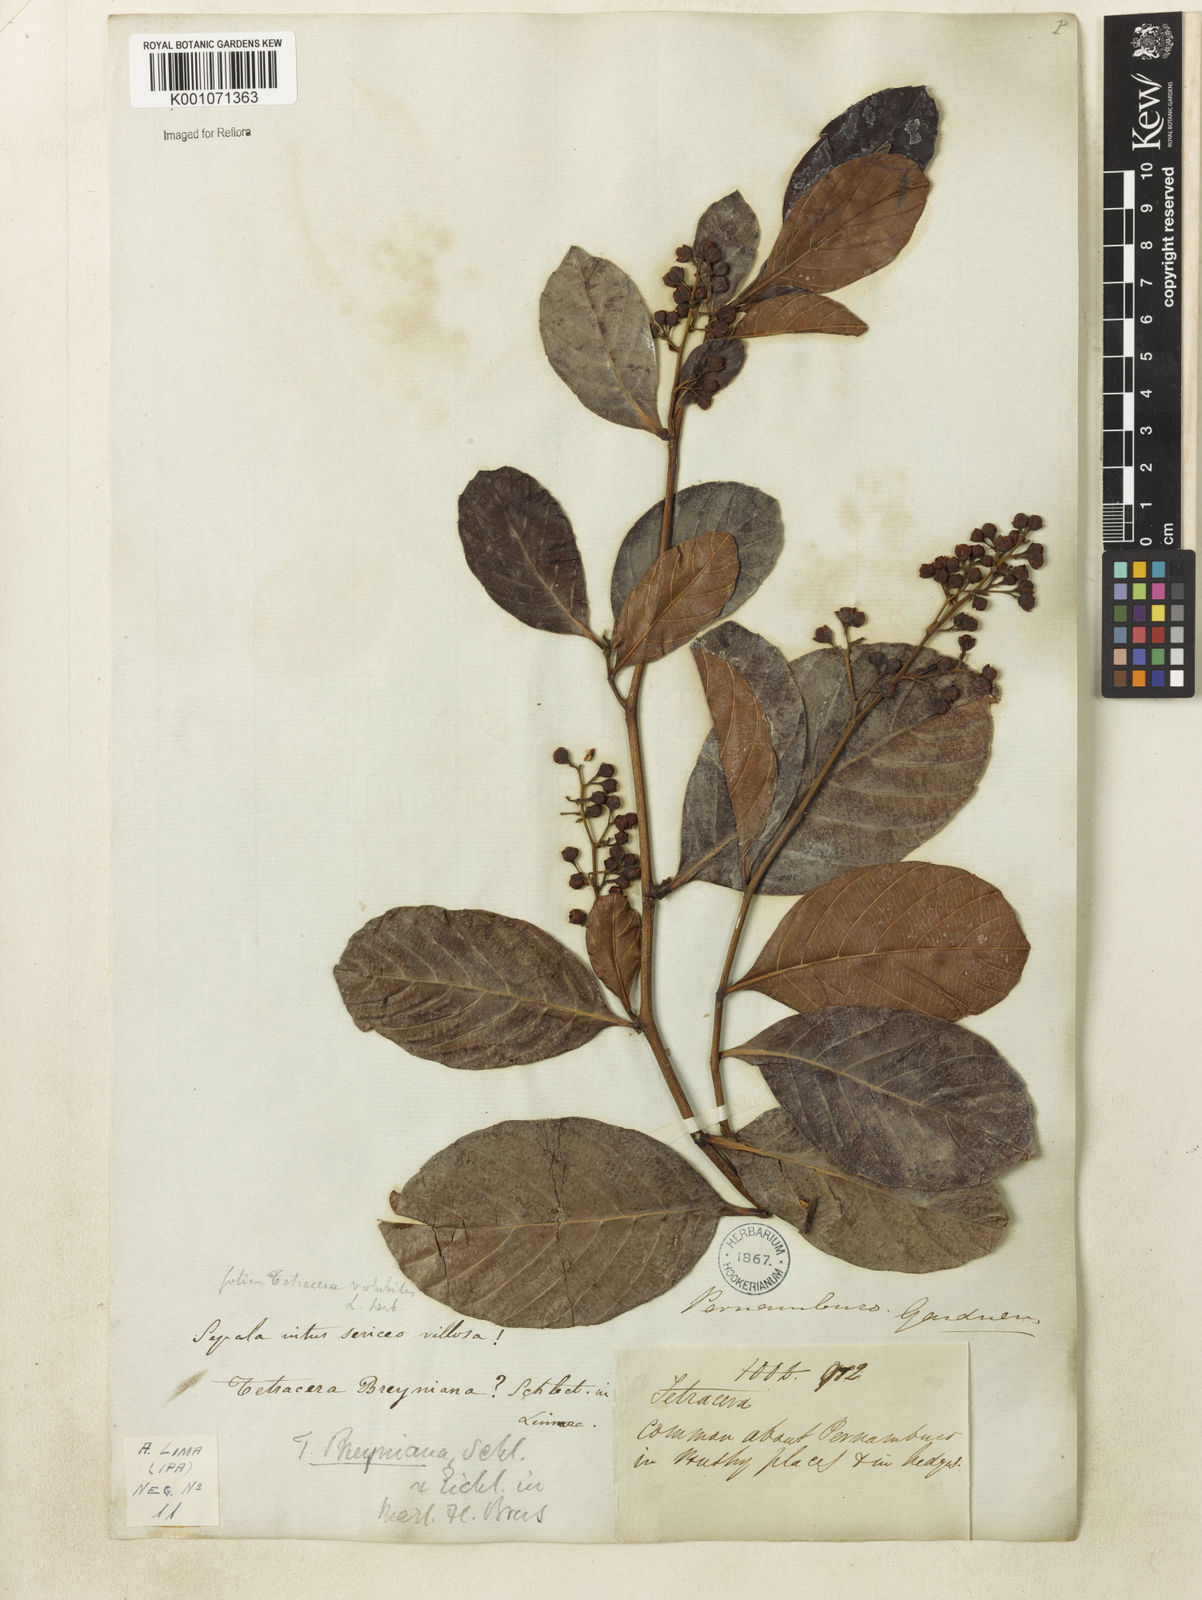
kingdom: Plantae
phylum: Tracheophyta
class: Magnoliopsida
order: Dilleniales
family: Dilleniaceae
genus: Tetracera
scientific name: Tetracera volubilis
